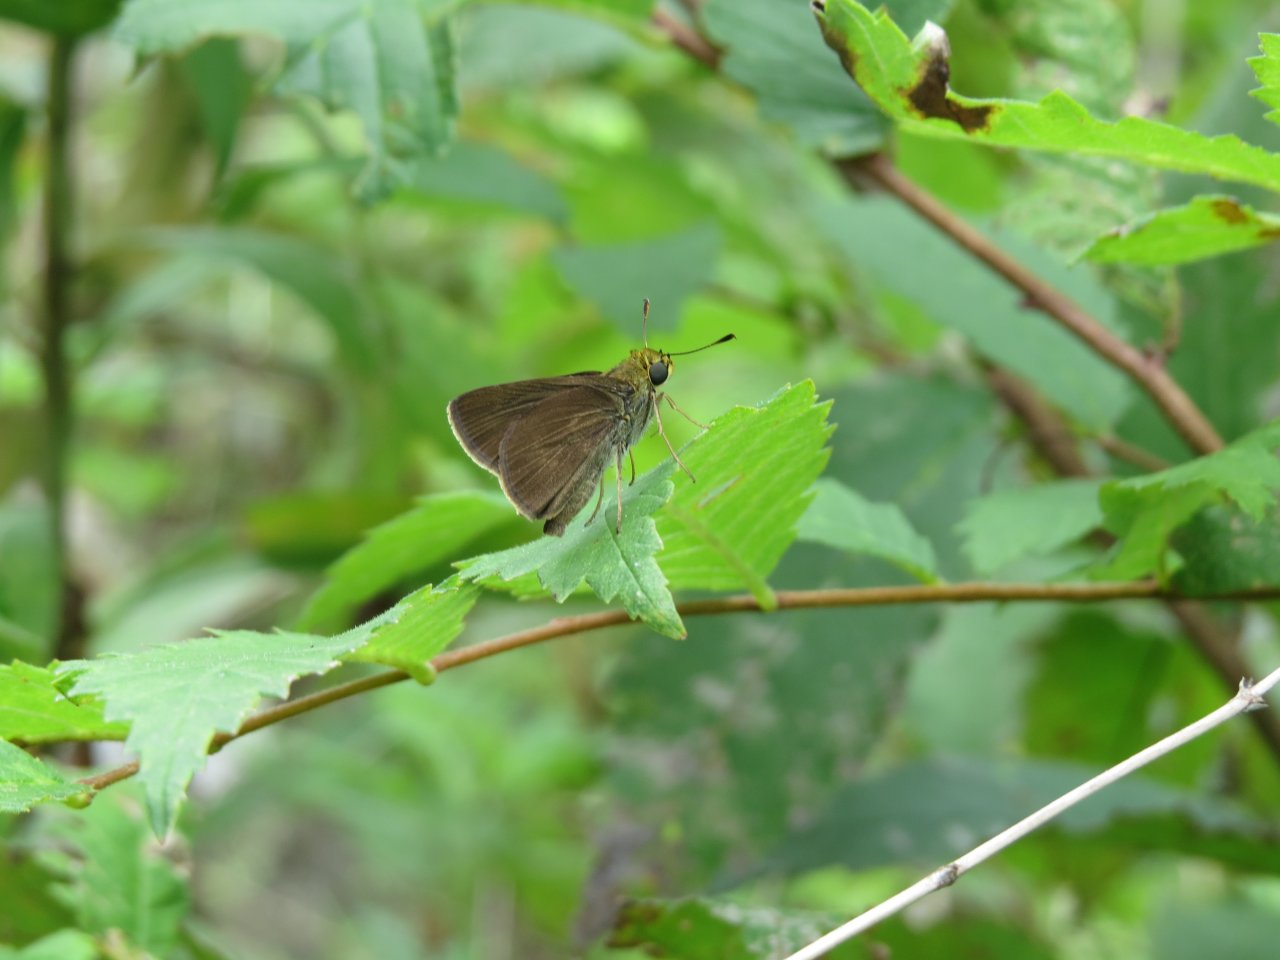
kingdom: Animalia
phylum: Arthropoda
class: Insecta
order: Lepidoptera
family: Hesperiidae
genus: Euphyes
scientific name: Euphyes vestris
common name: Dun Skipper
